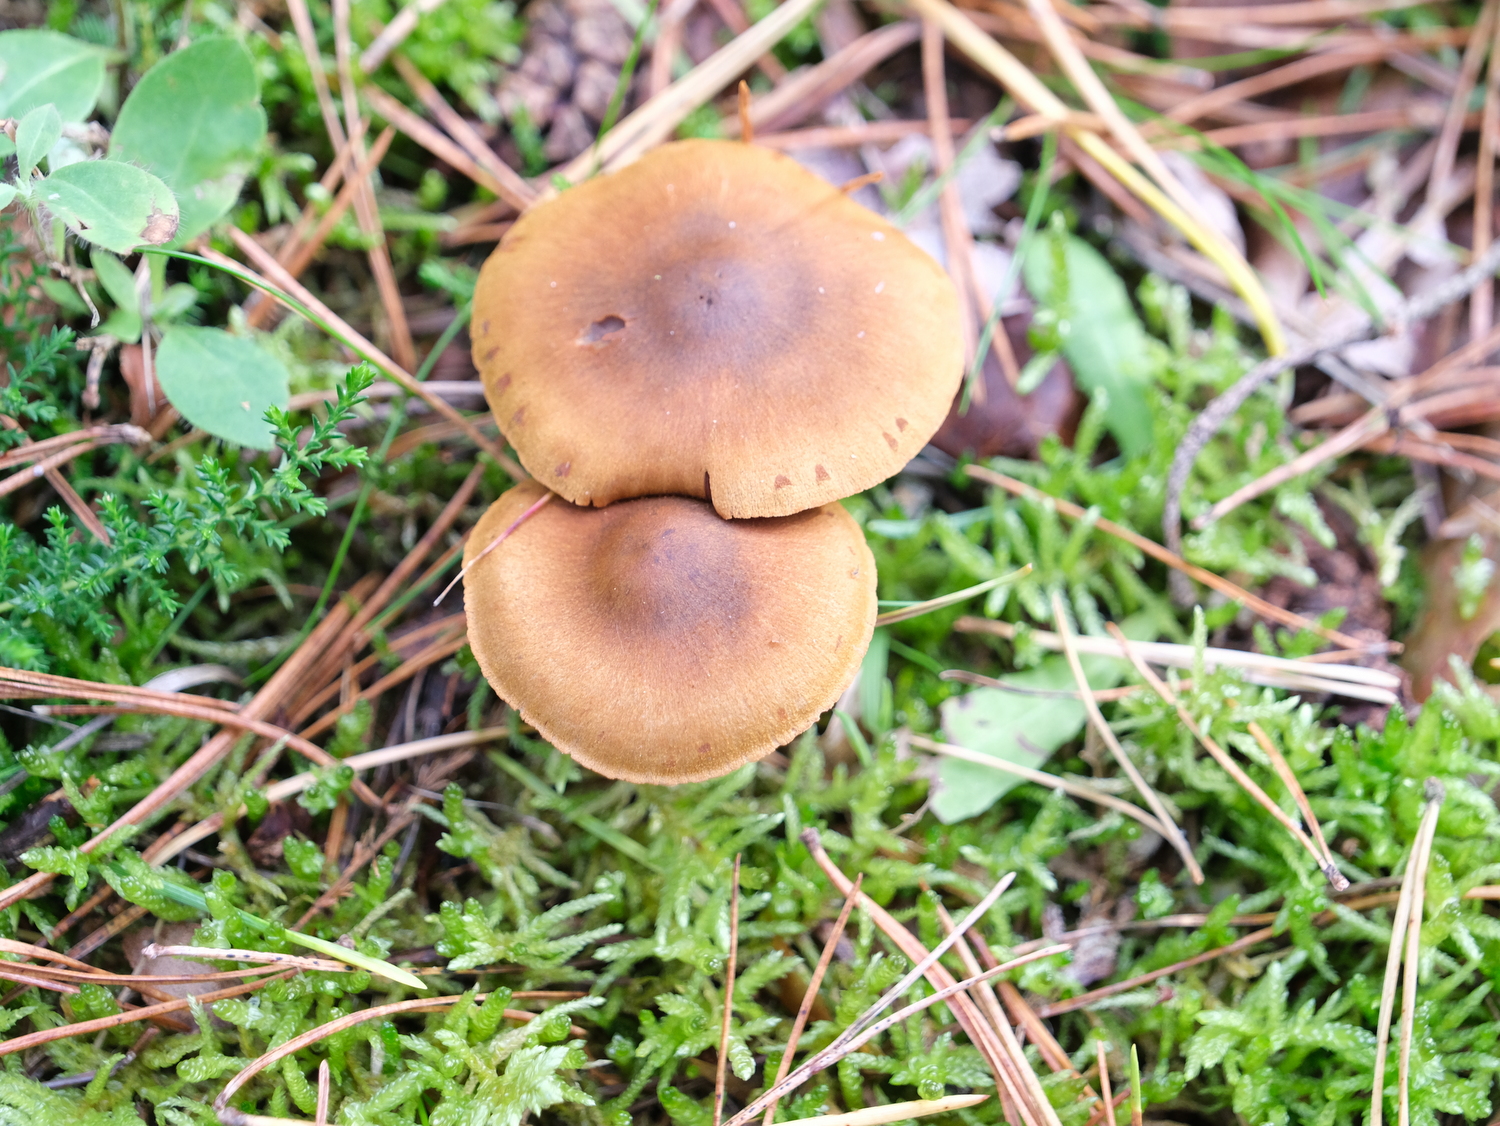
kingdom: Fungi
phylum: Basidiomycota
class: Agaricomycetes
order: Agaricales
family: Cortinariaceae
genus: Cortinarius
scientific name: Cortinarius
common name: cinnoberbladet slørhat
